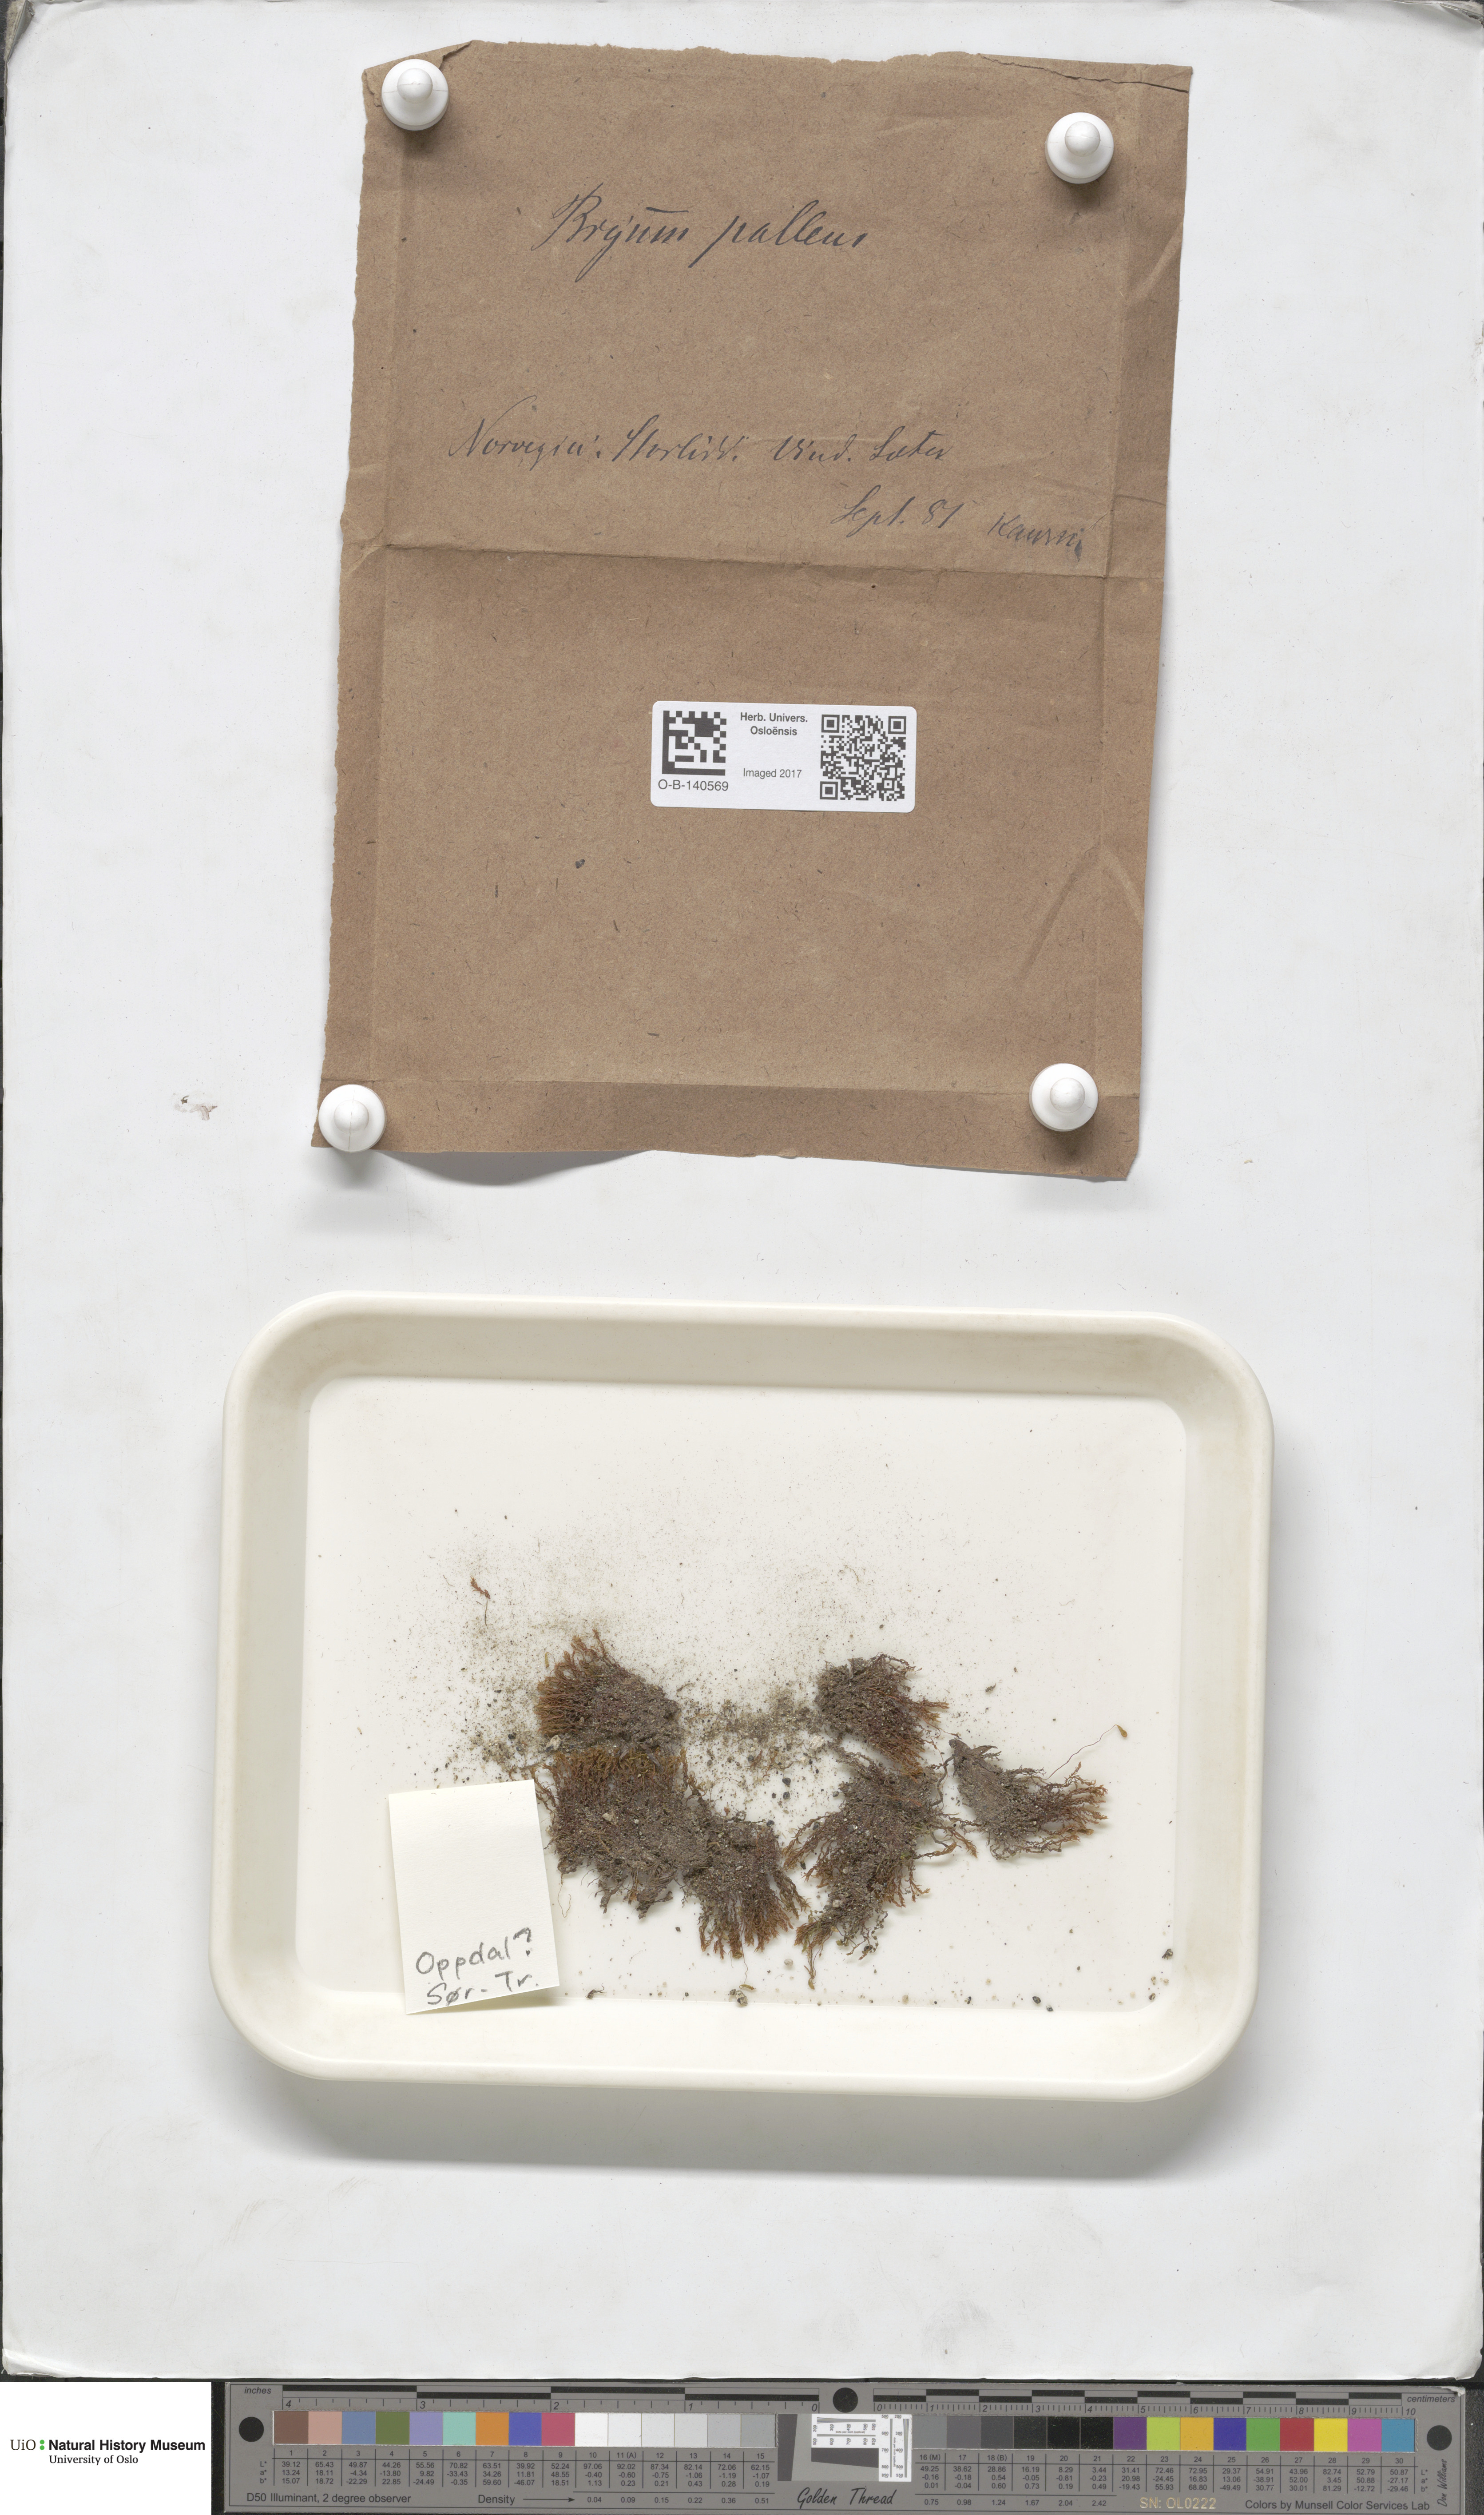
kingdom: Plantae
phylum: Bryophyta
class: Bryopsida
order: Bryales
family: Bryaceae
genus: Ptychostomum
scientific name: Ptychostomum pallens
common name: Pale thread-moss
